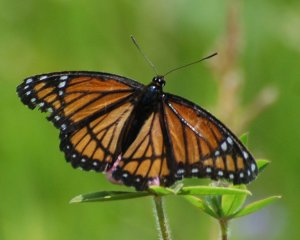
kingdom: Animalia
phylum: Arthropoda
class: Insecta
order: Lepidoptera
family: Nymphalidae
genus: Limenitis
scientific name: Limenitis archippus
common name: Viceroy
